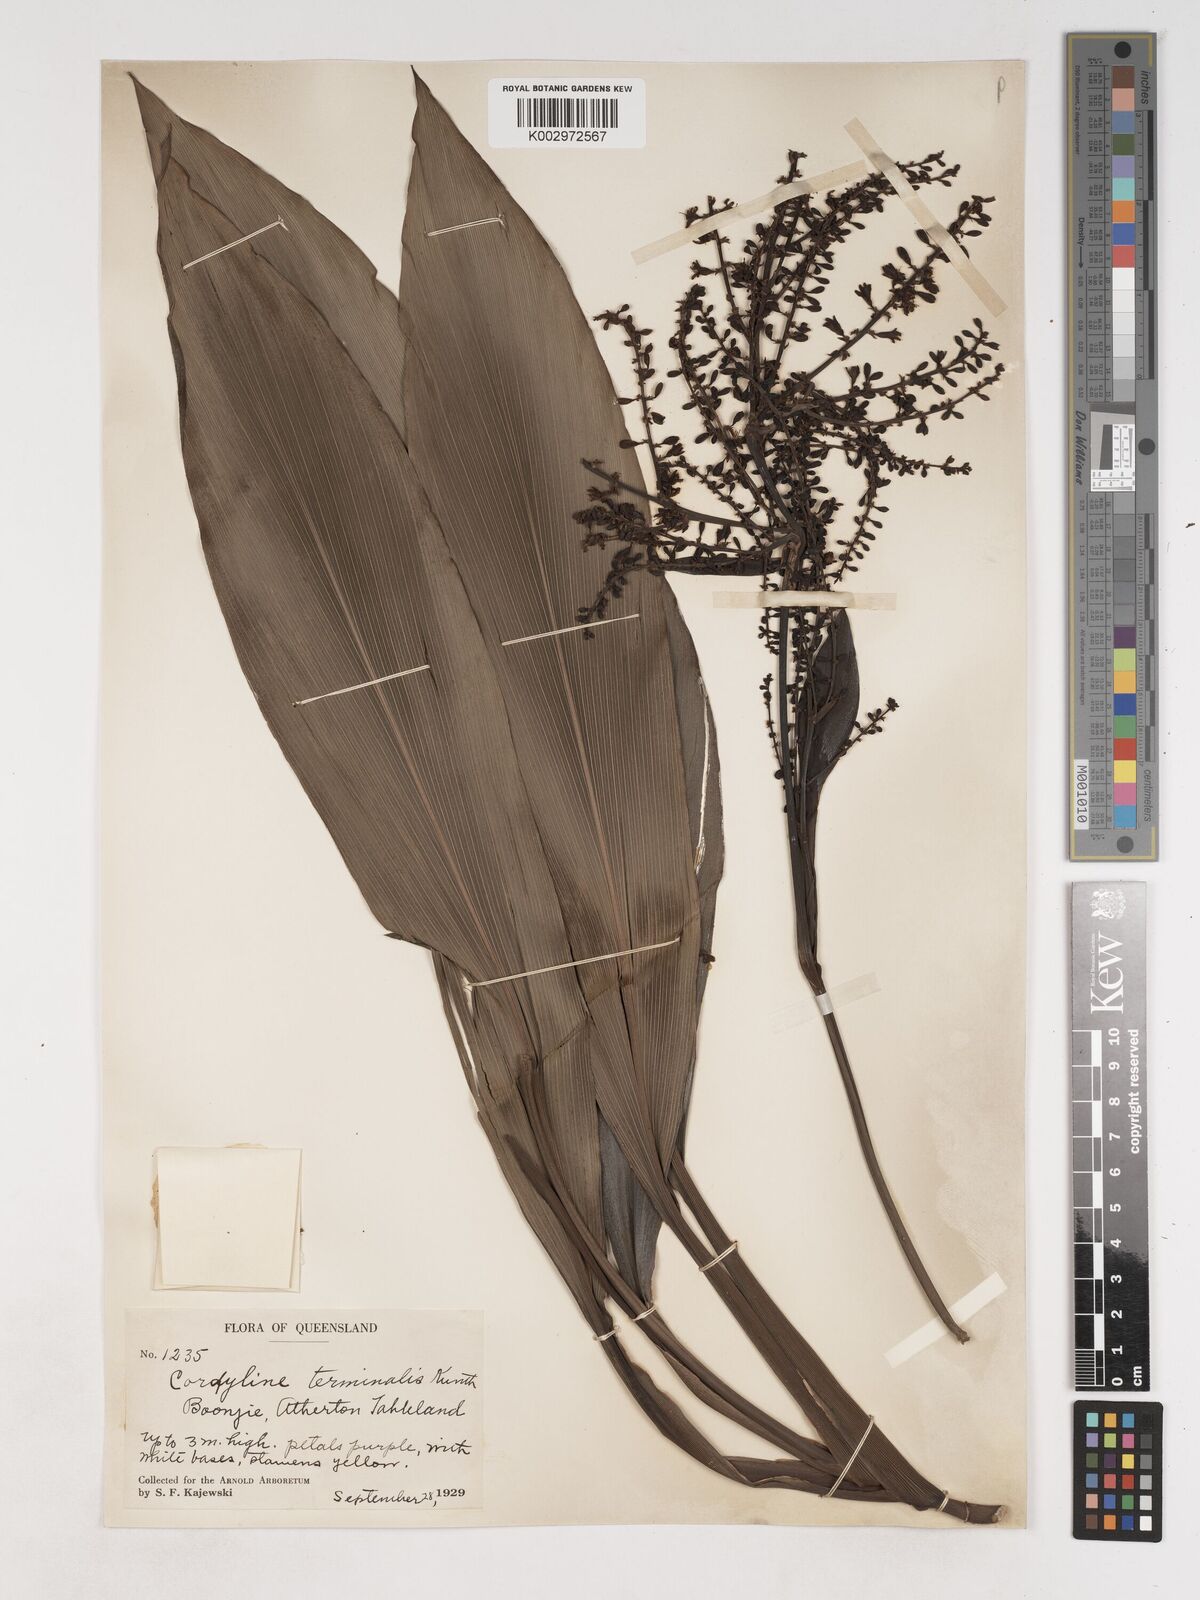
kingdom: Plantae
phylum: Tracheophyta
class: Liliopsida
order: Asparagales
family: Asparagaceae
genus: Cordyline
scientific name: Cordyline fruticosa
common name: Good-luck-plant
